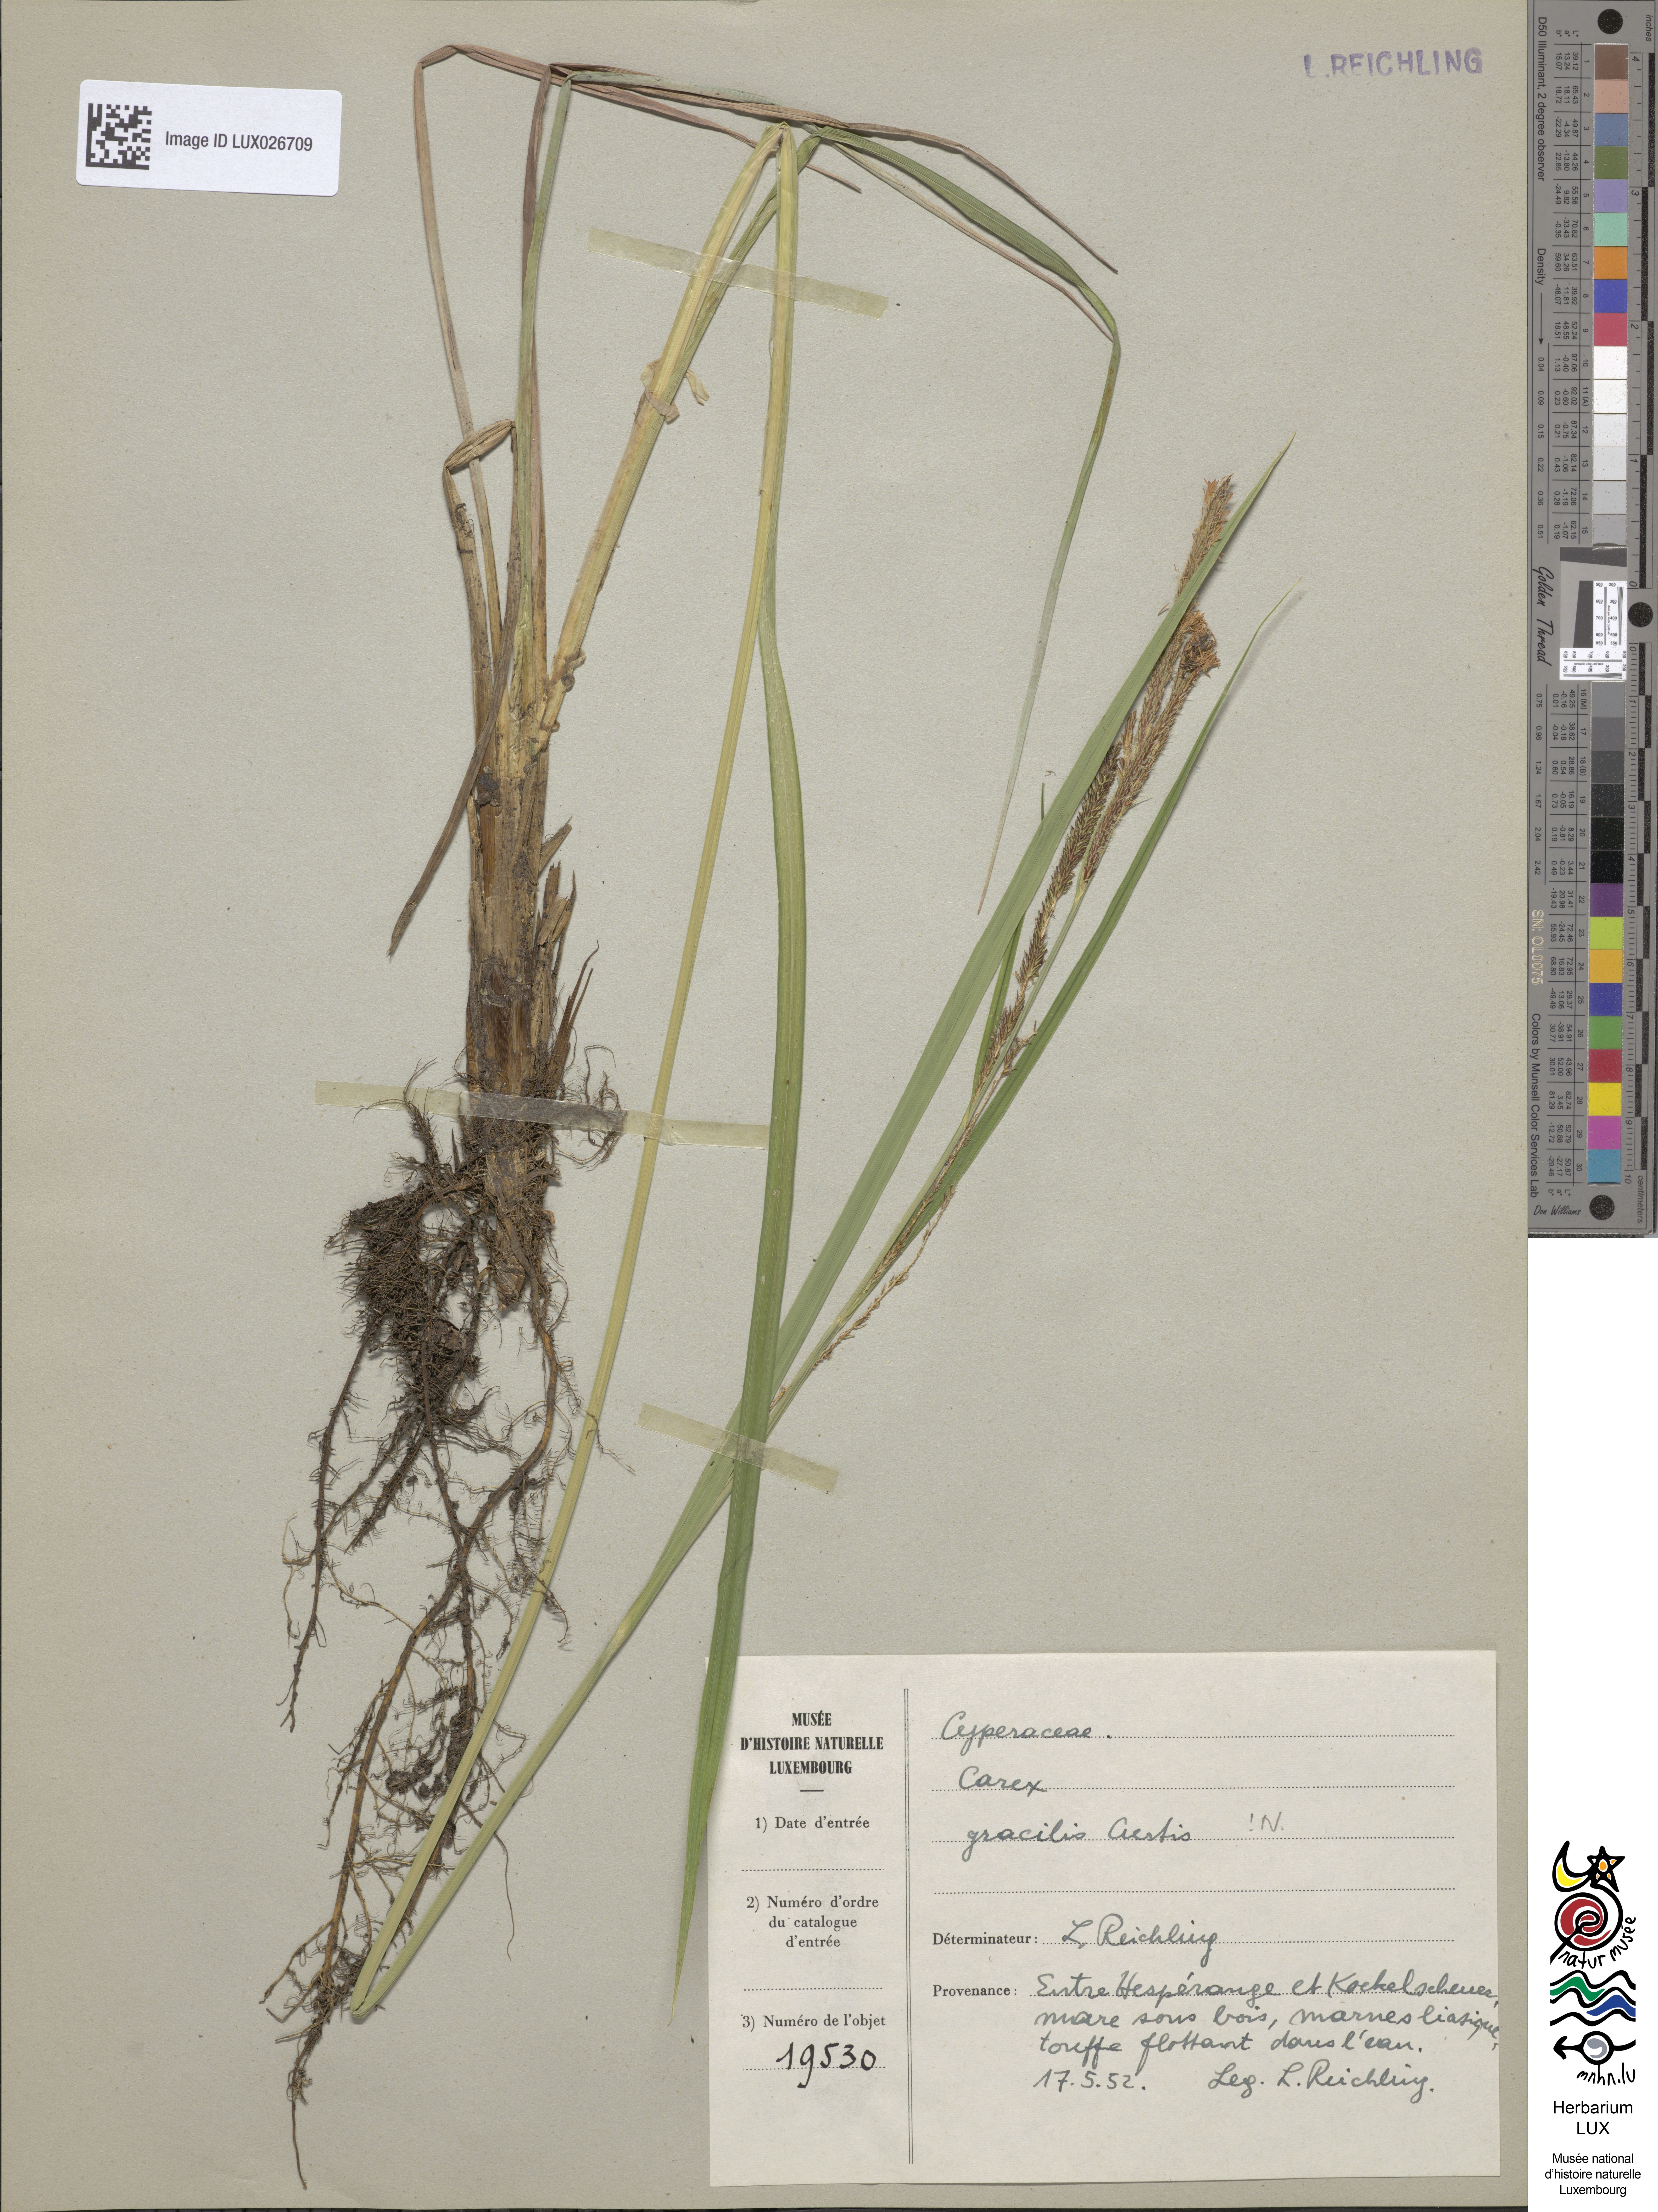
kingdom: Plantae
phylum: Tracheophyta
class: Liliopsida
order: Poales
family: Cyperaceae
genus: Carex
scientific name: Carex acuta
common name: Slender tufted-sedge
